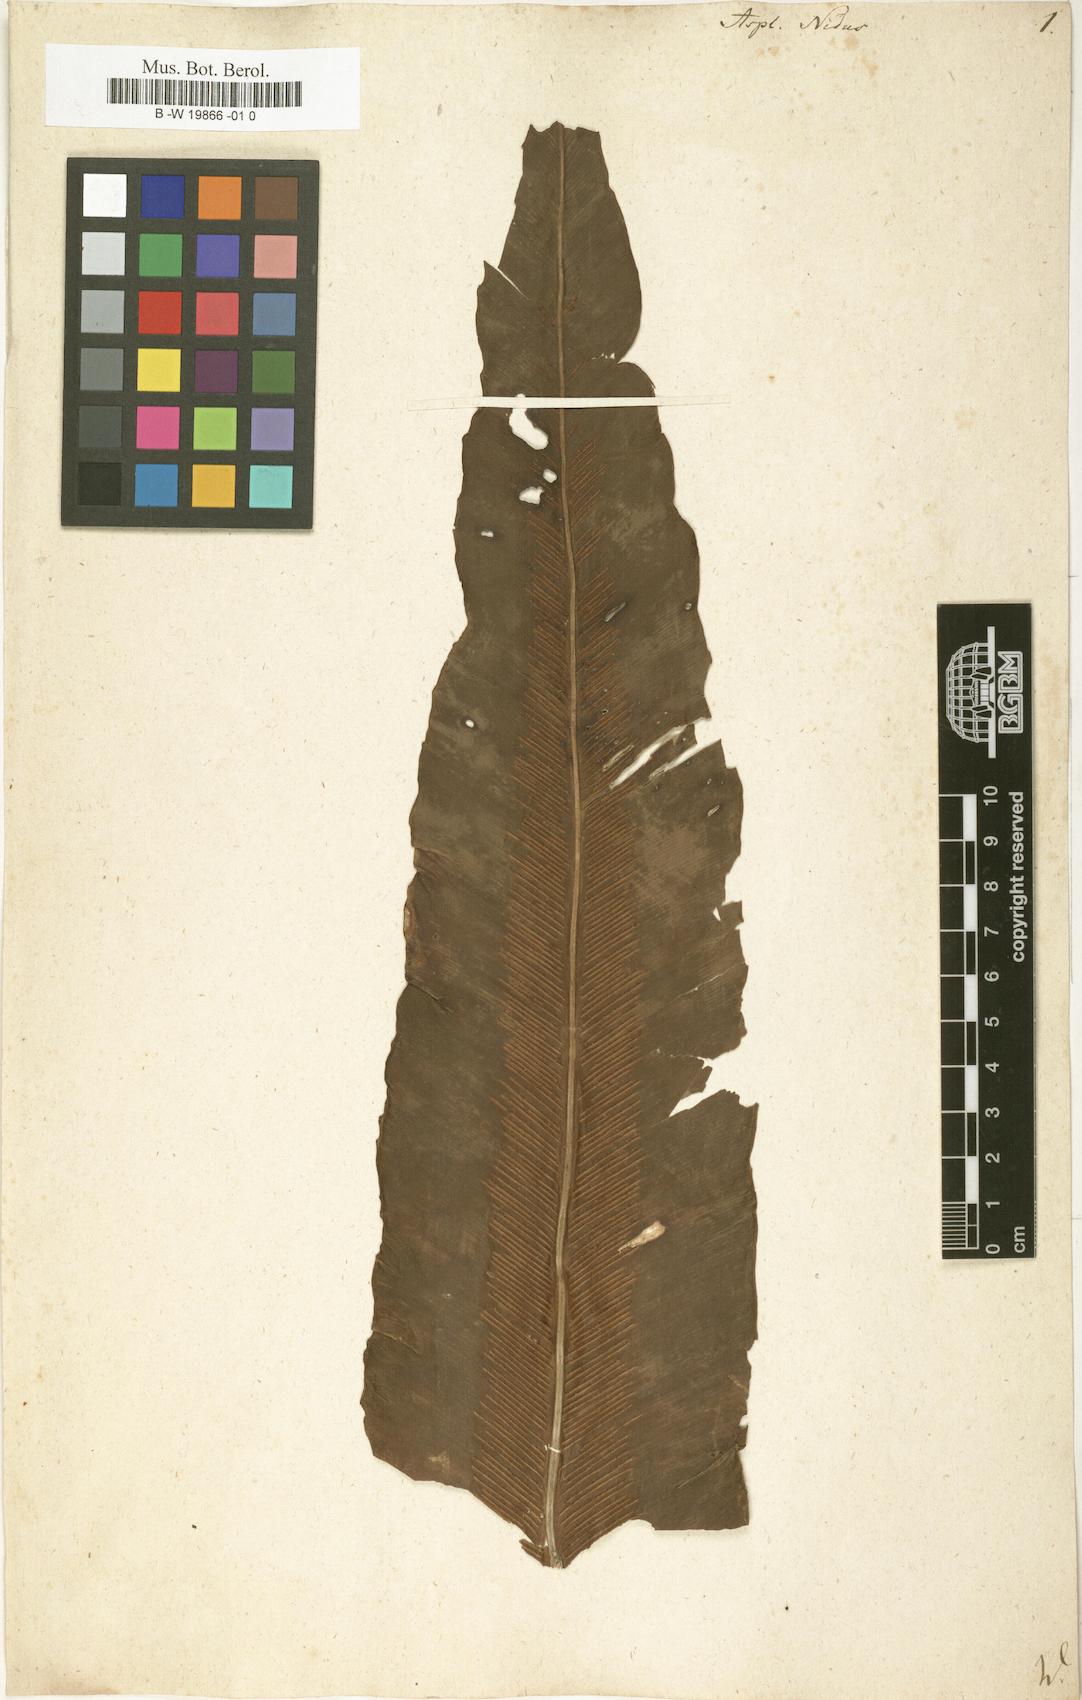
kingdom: Plantae
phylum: Tracheophyta
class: Polypodiopsida
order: Polypodiales
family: Aspleniaceae
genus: Asplenium
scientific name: Asplenium nidus
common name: Bird's-nest fern
